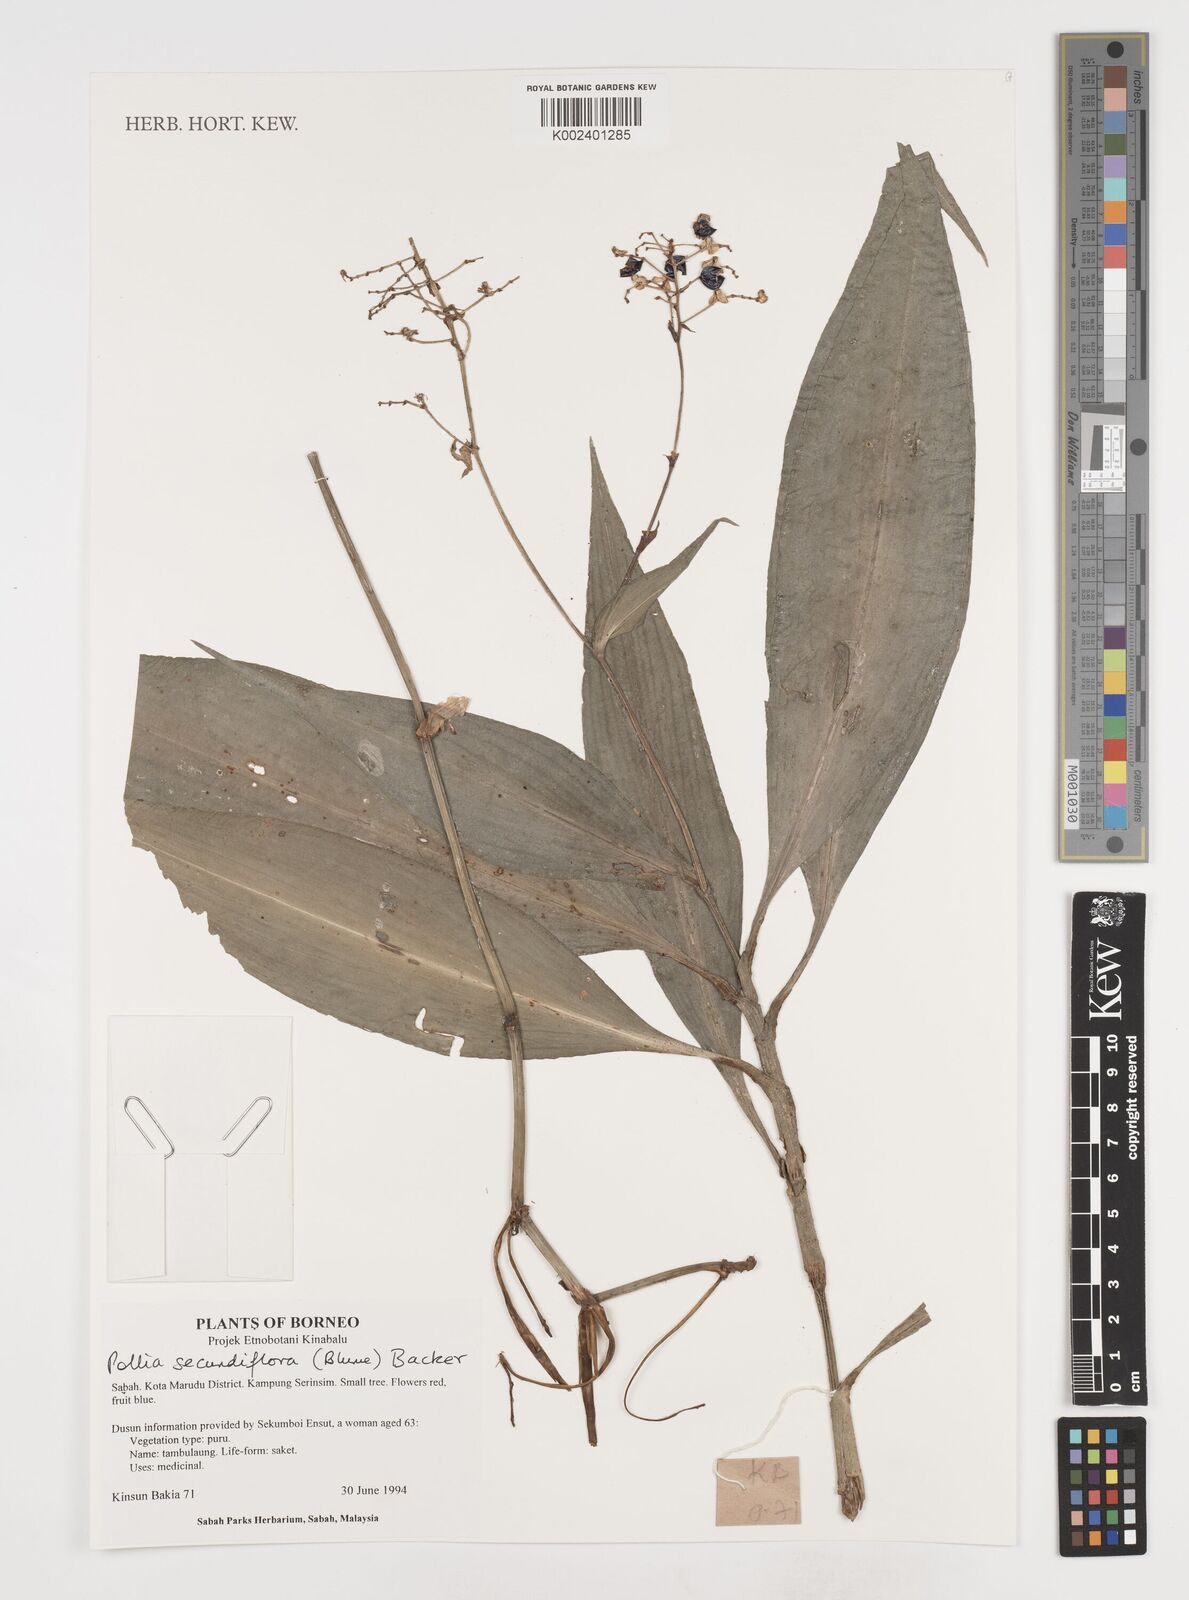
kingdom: Plantae
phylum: Tracheophyta
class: Liliopsida
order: Commelinales
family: Commelinaceae
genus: Pollia
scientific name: Pollia secundiflora
